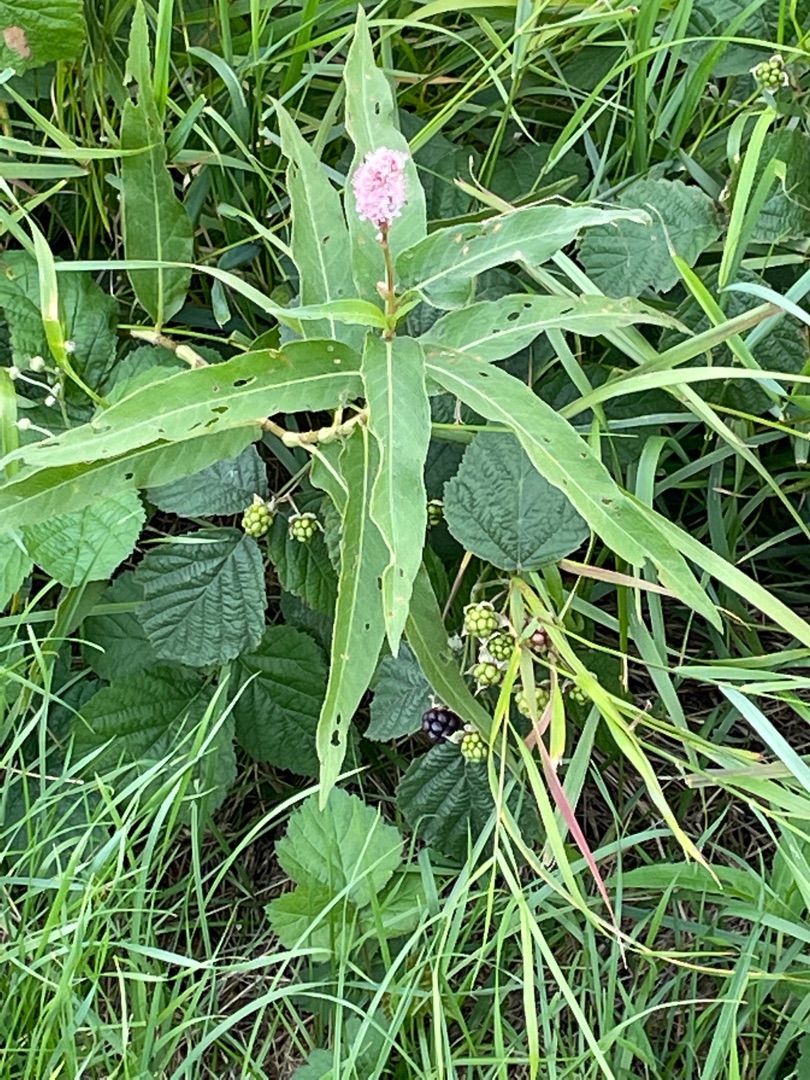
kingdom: Plantae
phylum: Tracheophyta
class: Magnoliopsida
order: Caryophyllales
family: Polygonaceae
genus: Persicaria
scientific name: Persicaria amphibia
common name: Vand-pileurt
